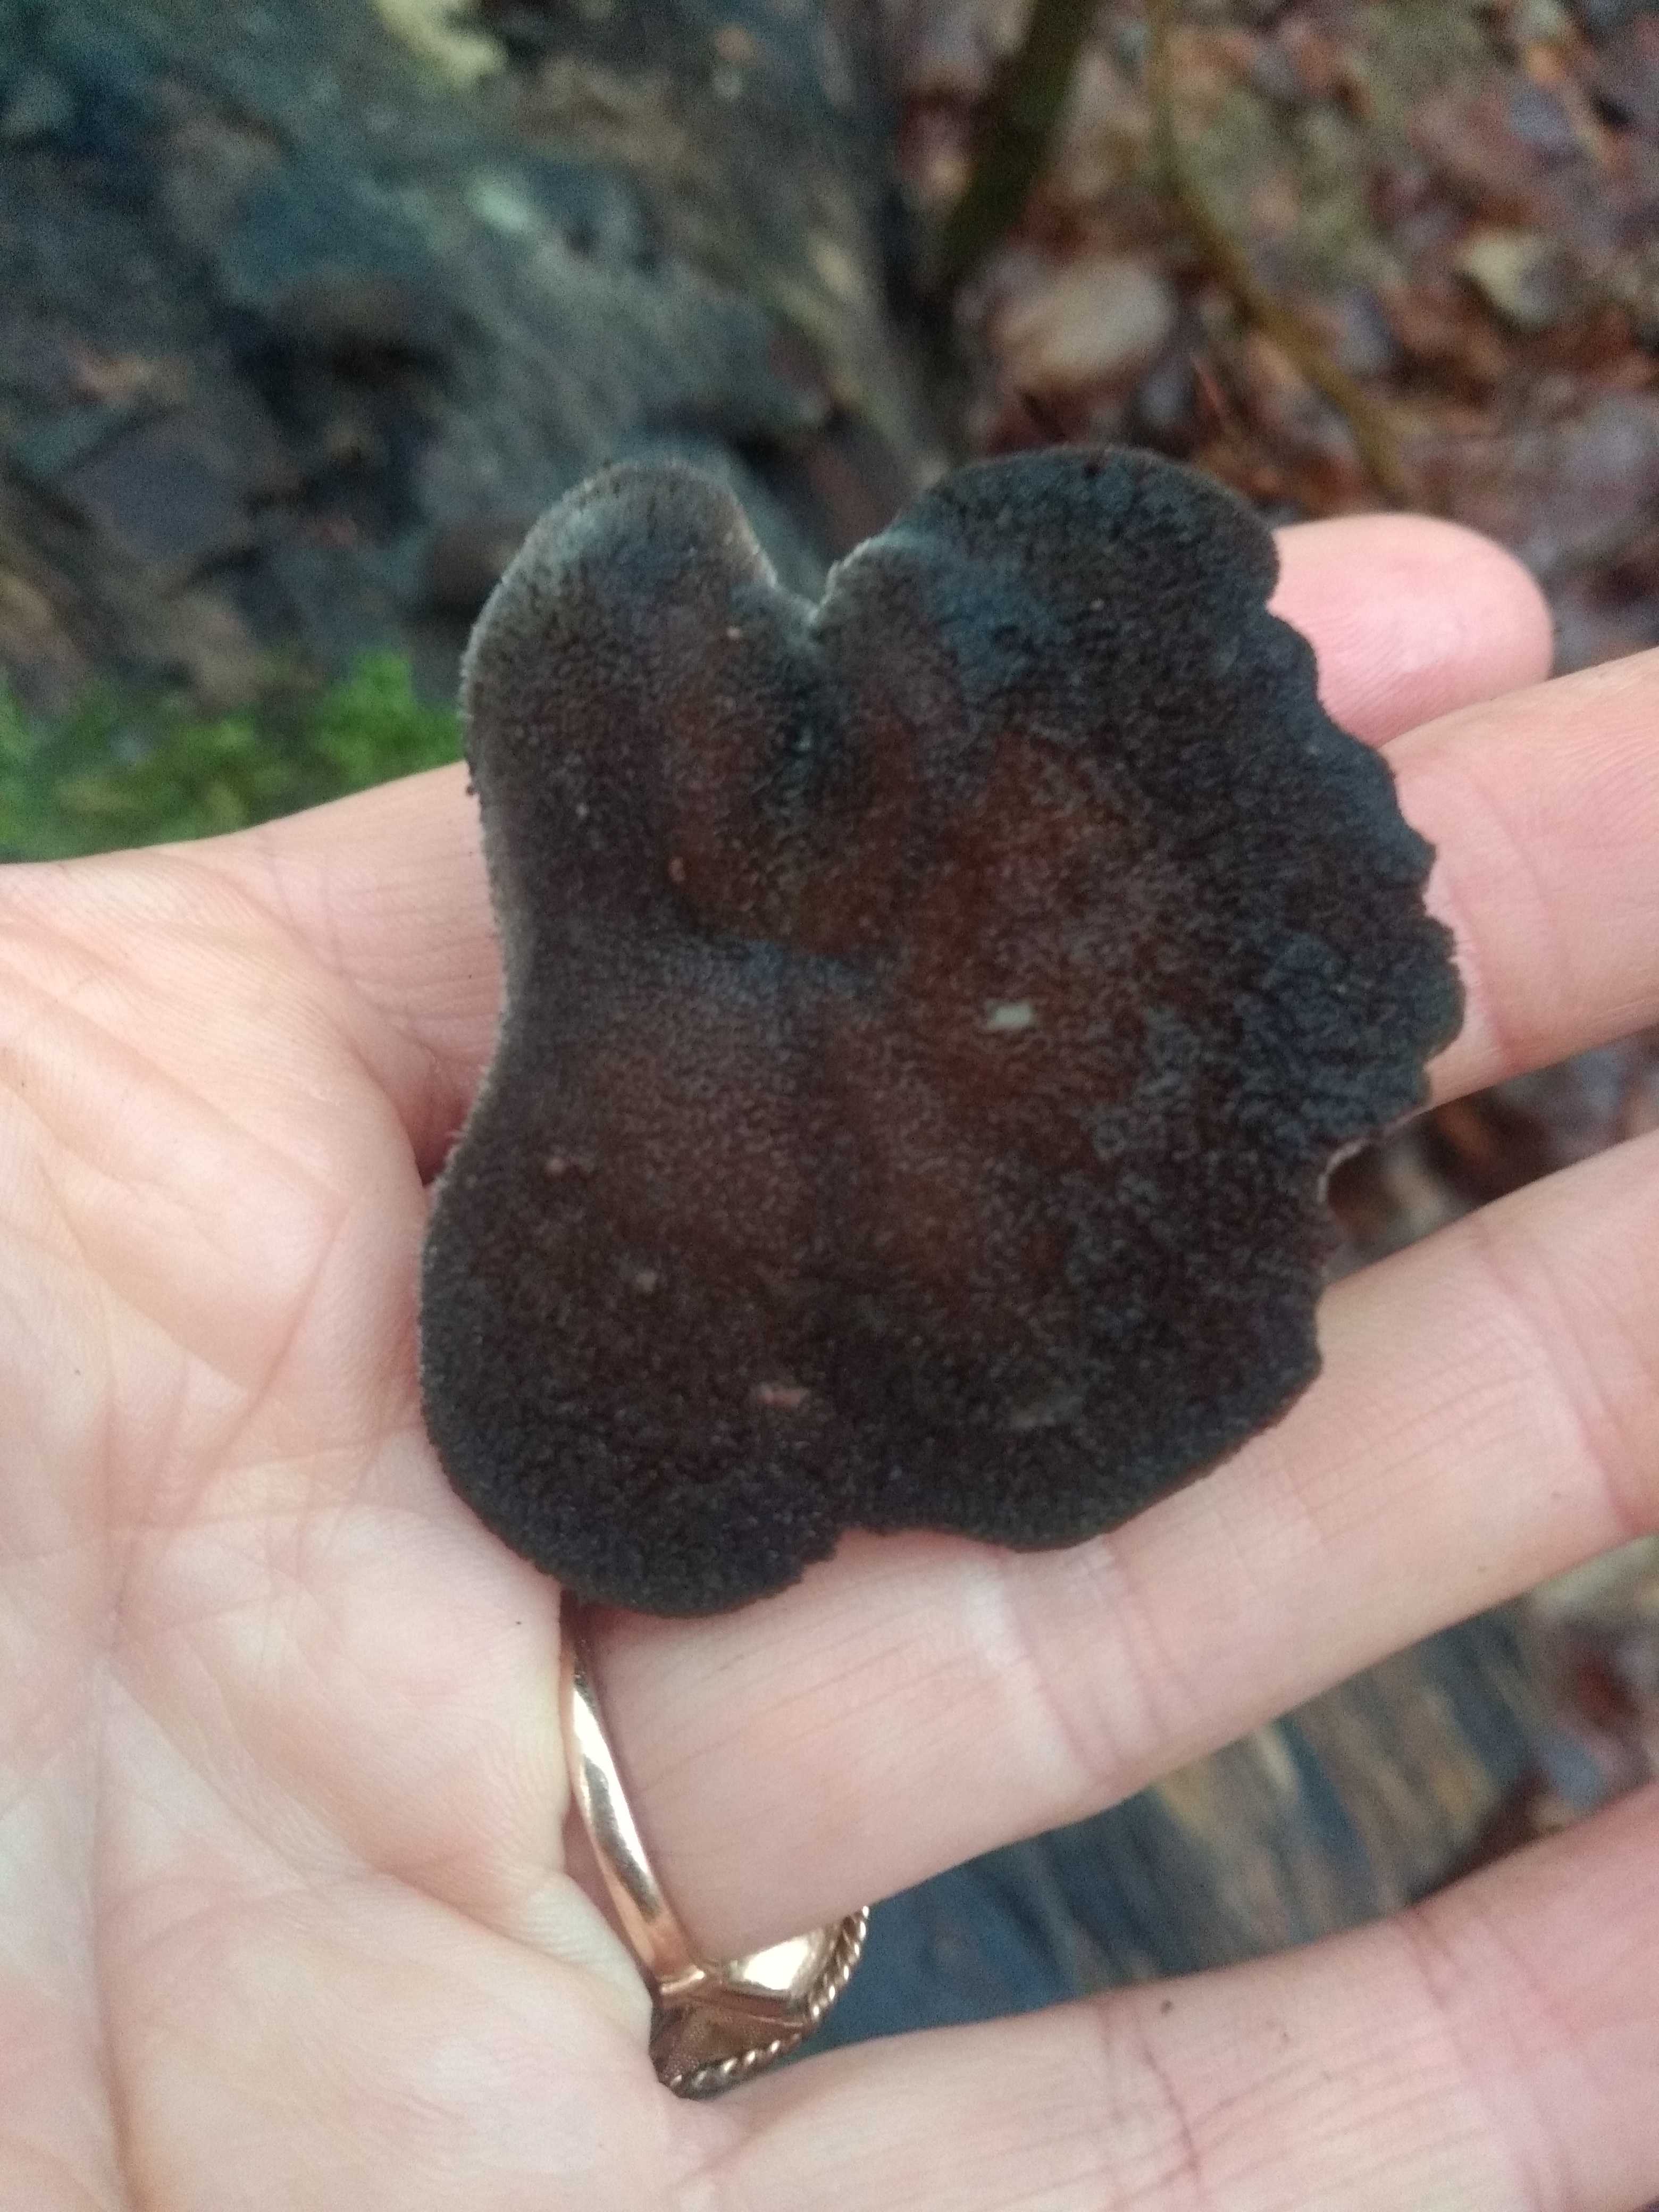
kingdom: Fungi
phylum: Basidiomycota
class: Agaricomycetes
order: Polyporales
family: Polyporaceae
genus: Lentinus
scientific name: Lentinus brumalis
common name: vinter-stilkporesvamp
